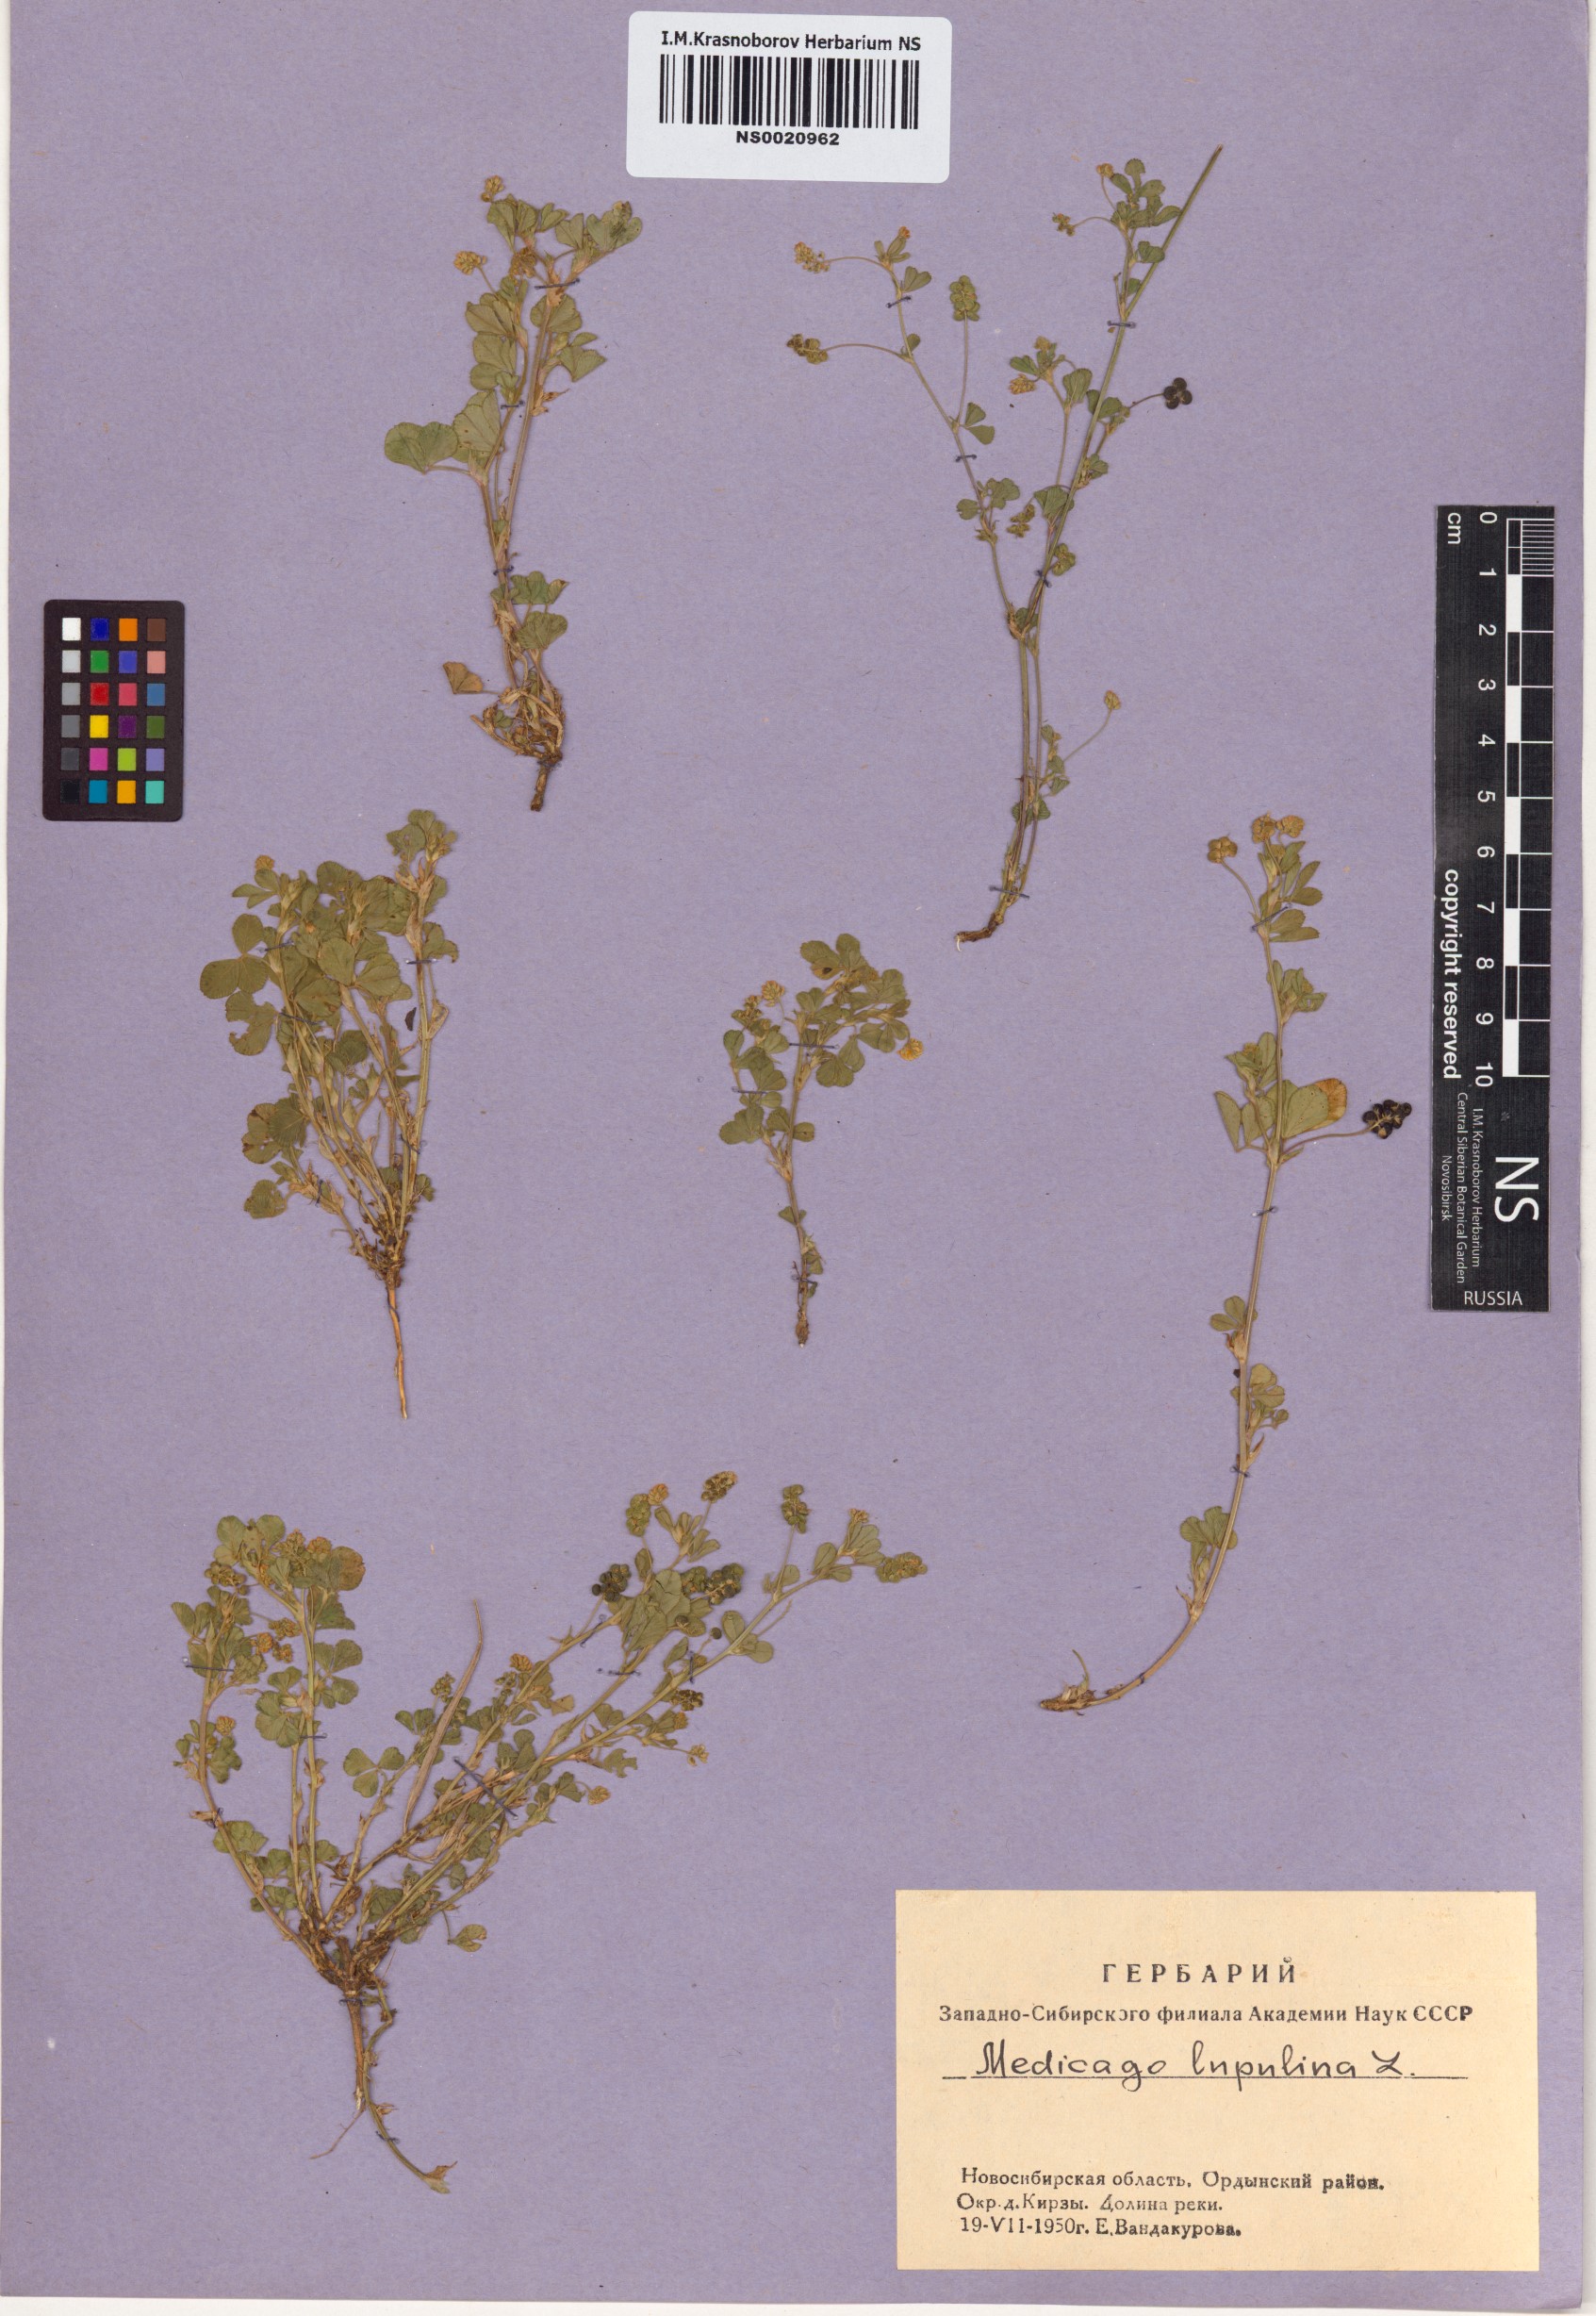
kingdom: Plantae
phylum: Tracheophyta
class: Magnoliopsida
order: Fabales
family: Fabaceae
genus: Medicago
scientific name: Medicago lupulina
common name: Black medick
